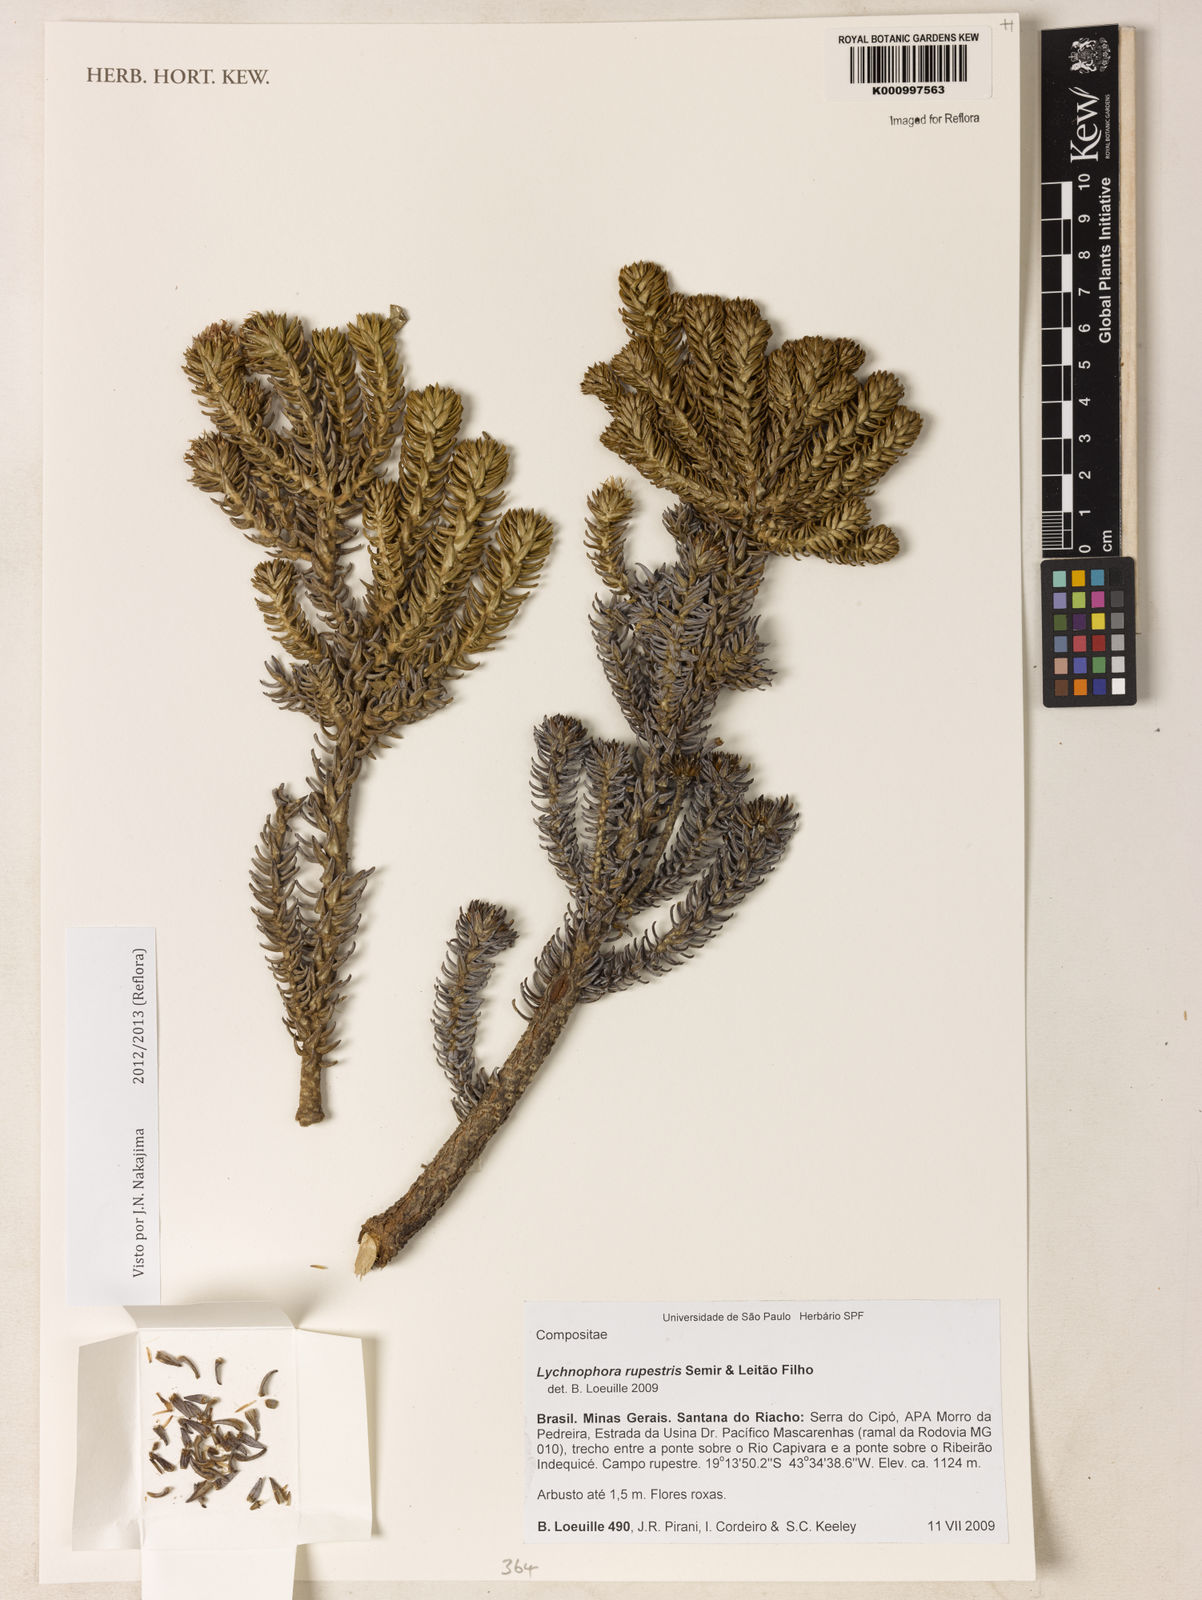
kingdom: Plantae
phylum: Tracheophyta
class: Magnoliopsida
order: Asterales
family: Asteraceae
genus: Lychnophora
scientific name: Lychnophora
